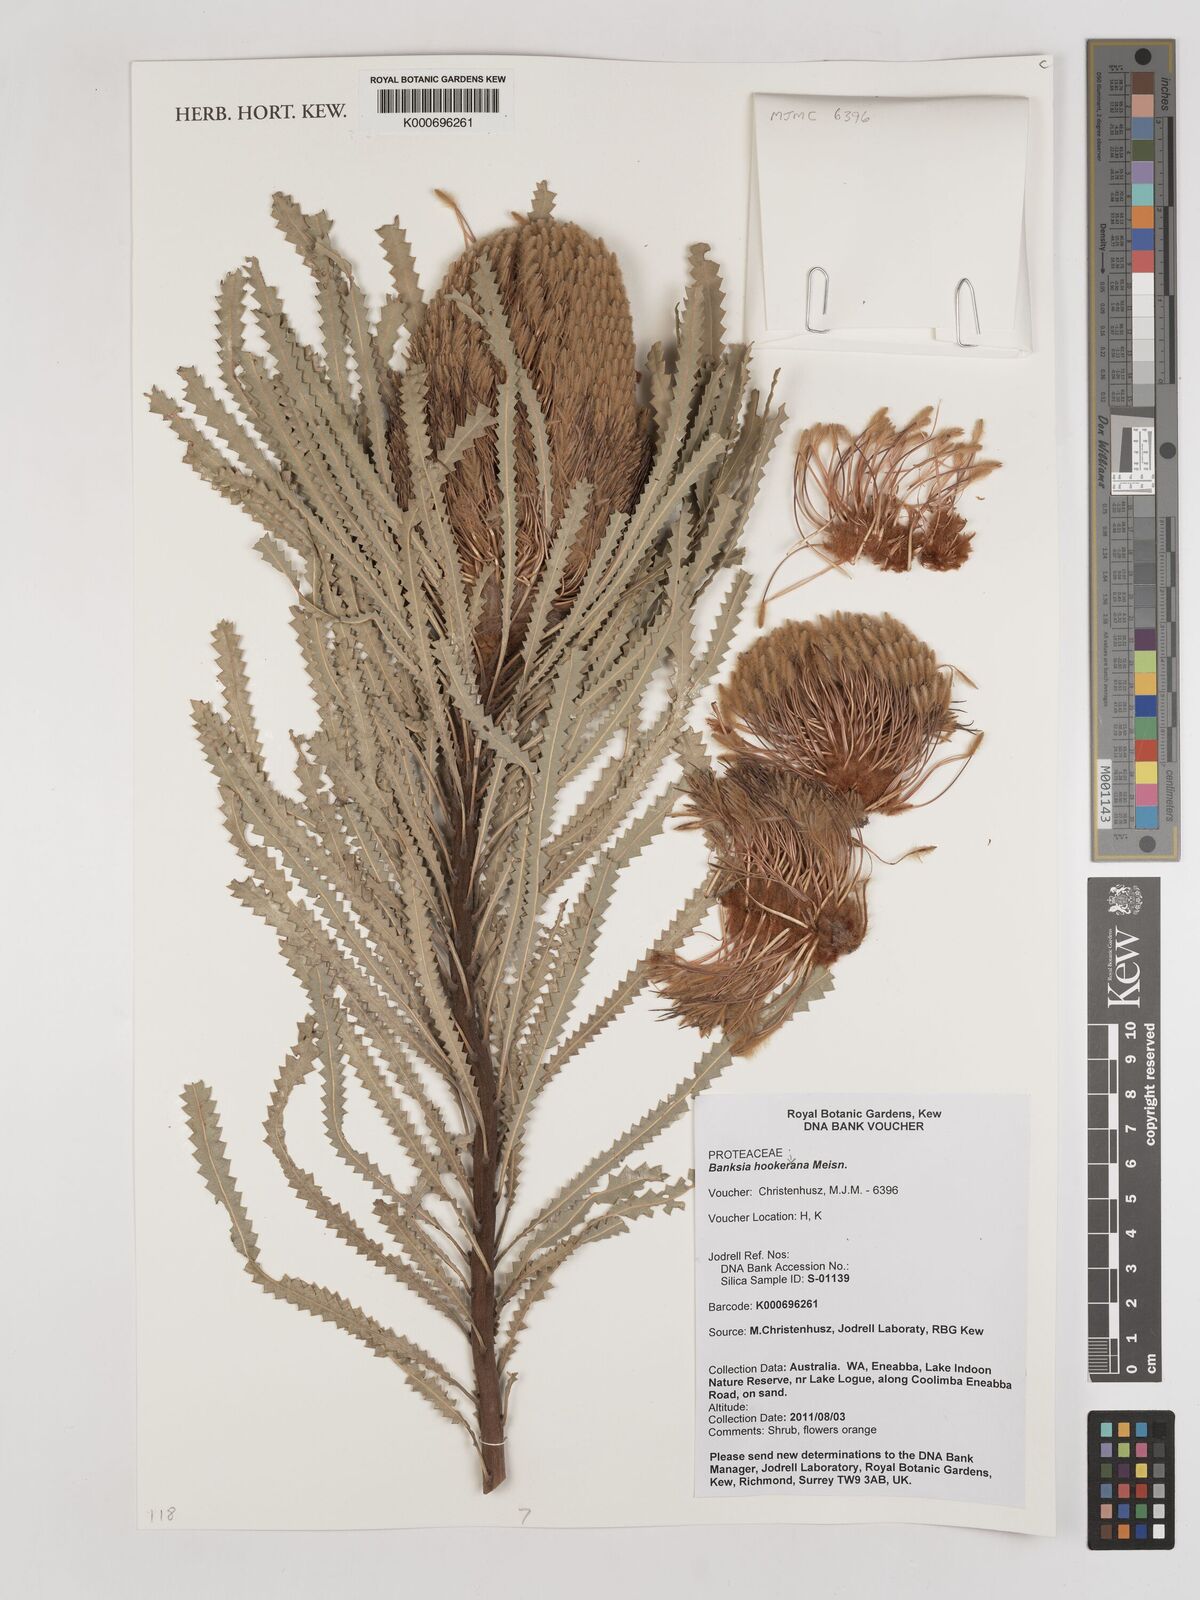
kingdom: Plantae
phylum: Tracheophyta
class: Magnoliopsida
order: Proteales
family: Proteaceae
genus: Banksia
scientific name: Banksia hookeriana
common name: Hooker's banksia
